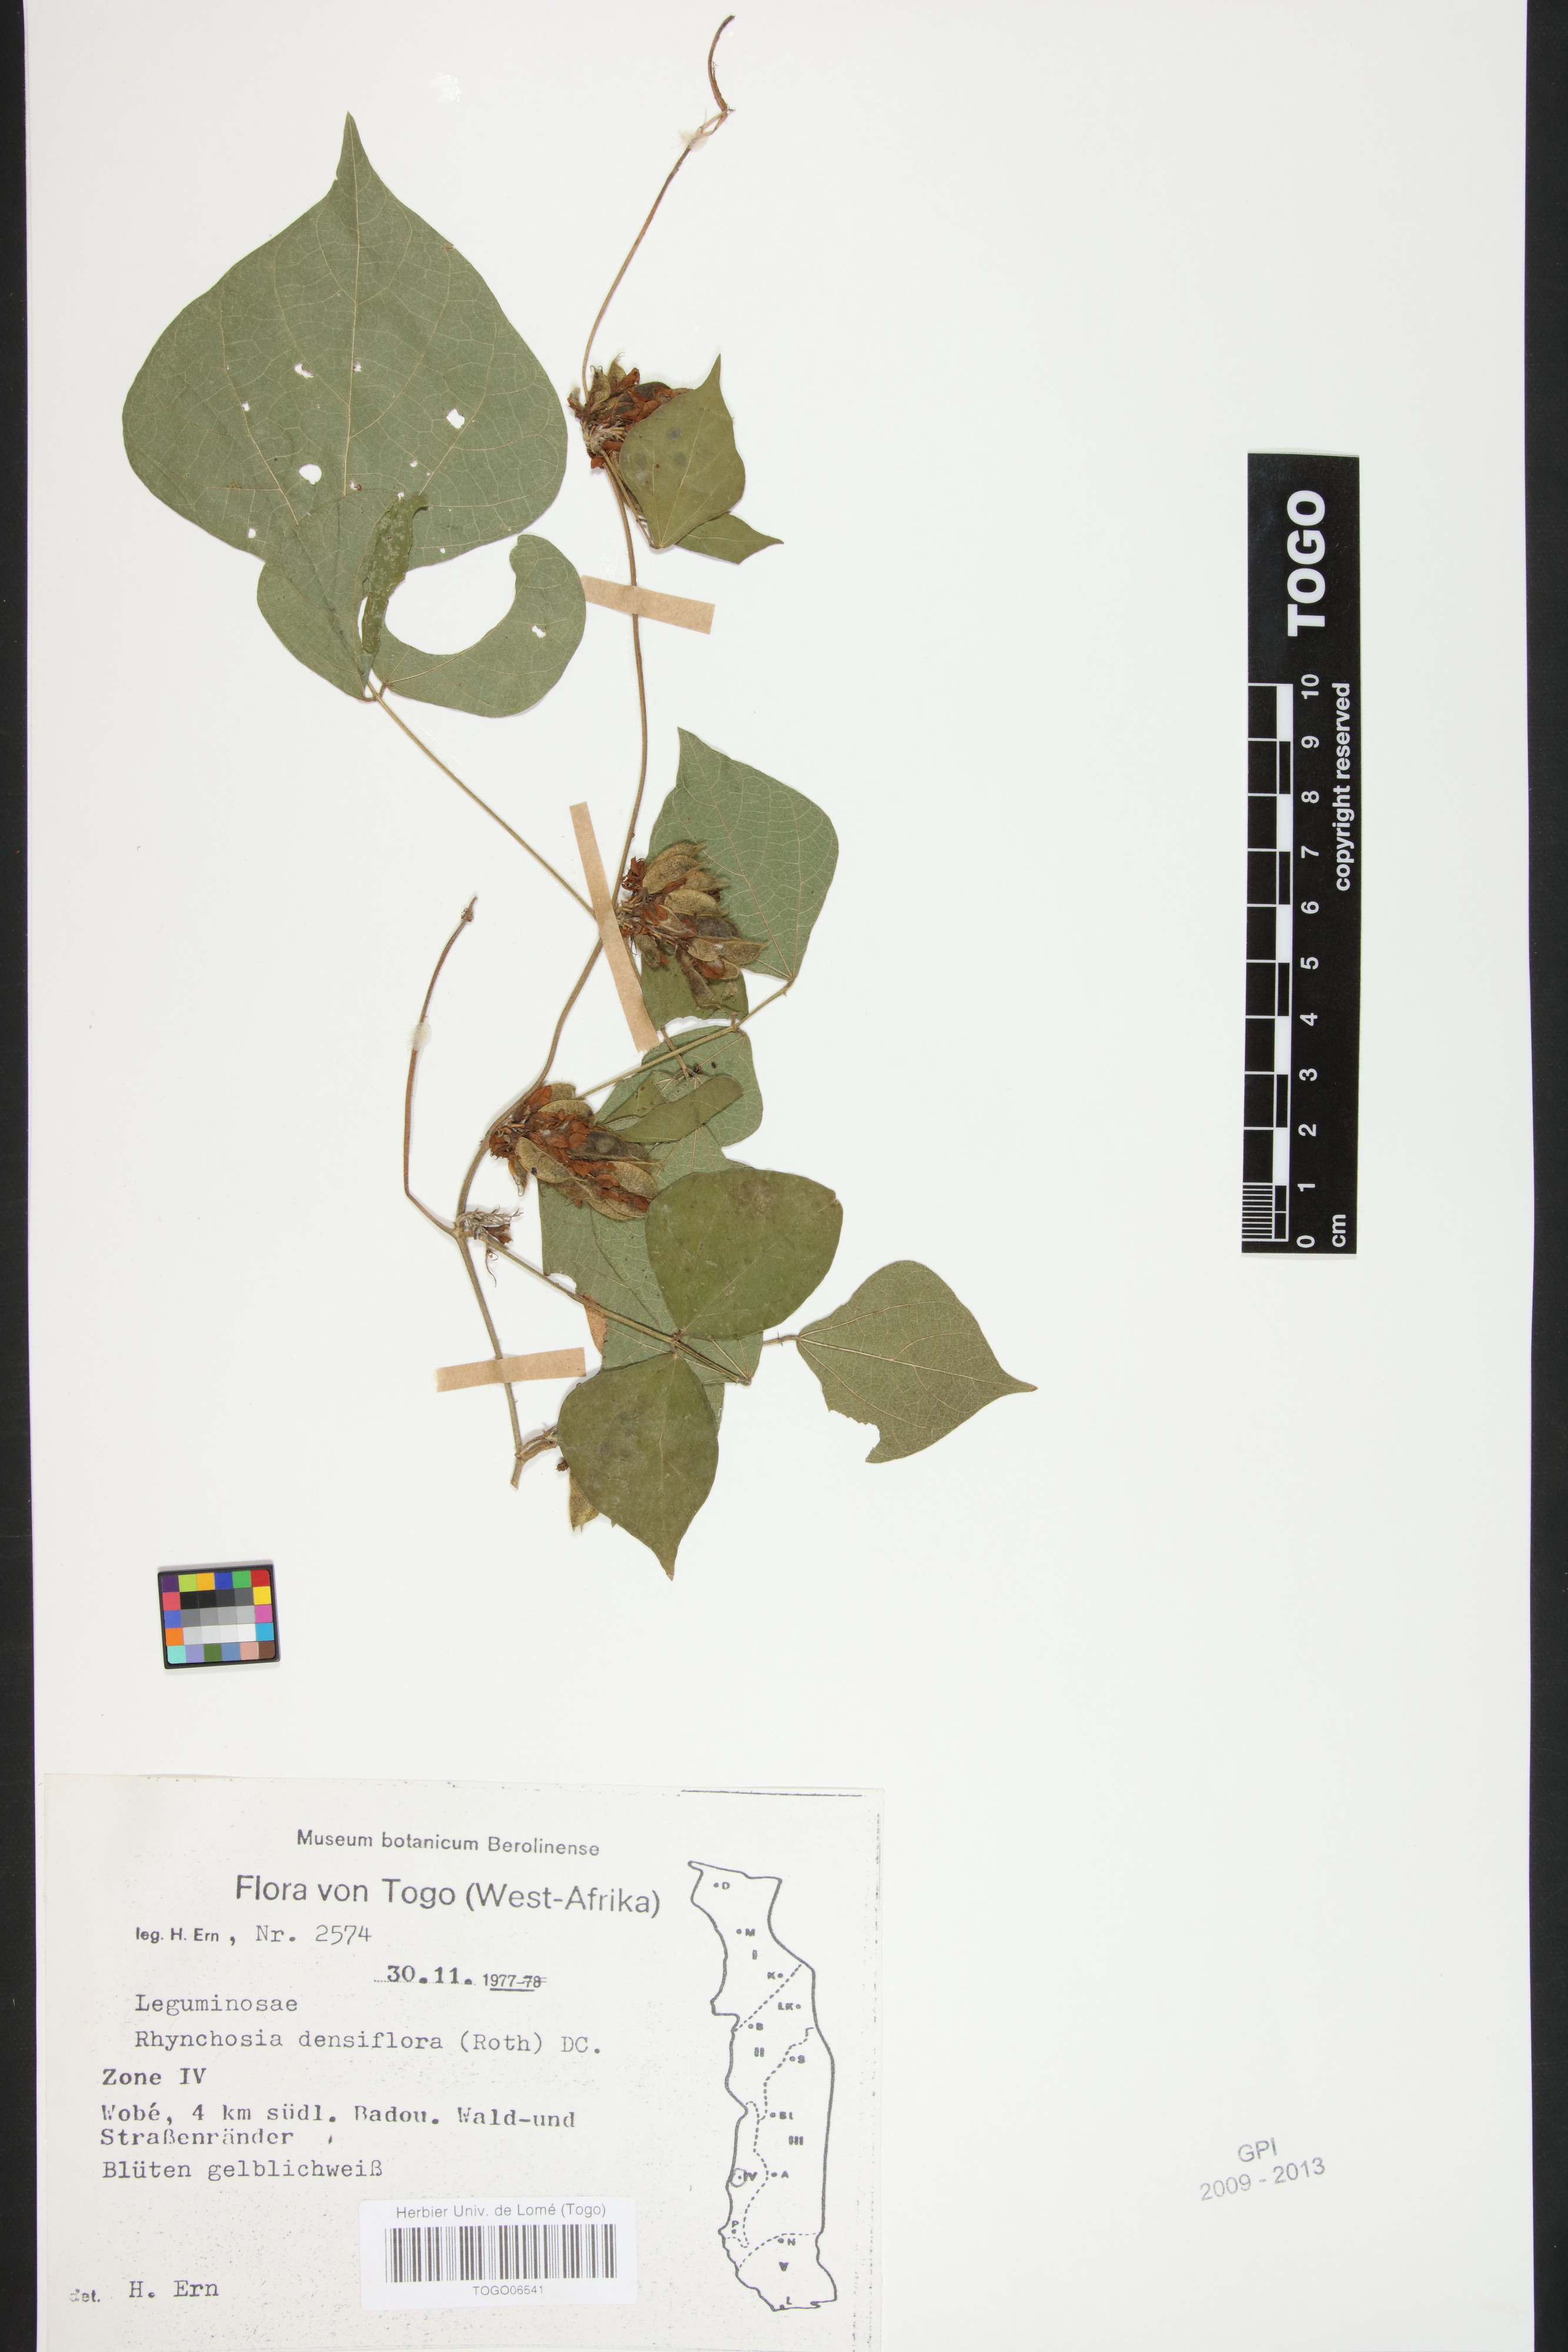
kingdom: Plantae
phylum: Tracheophyta
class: Magnoliopsida
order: Fabales
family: Fabaceae
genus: Rhynchosia
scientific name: Rhynchosia densiflora
